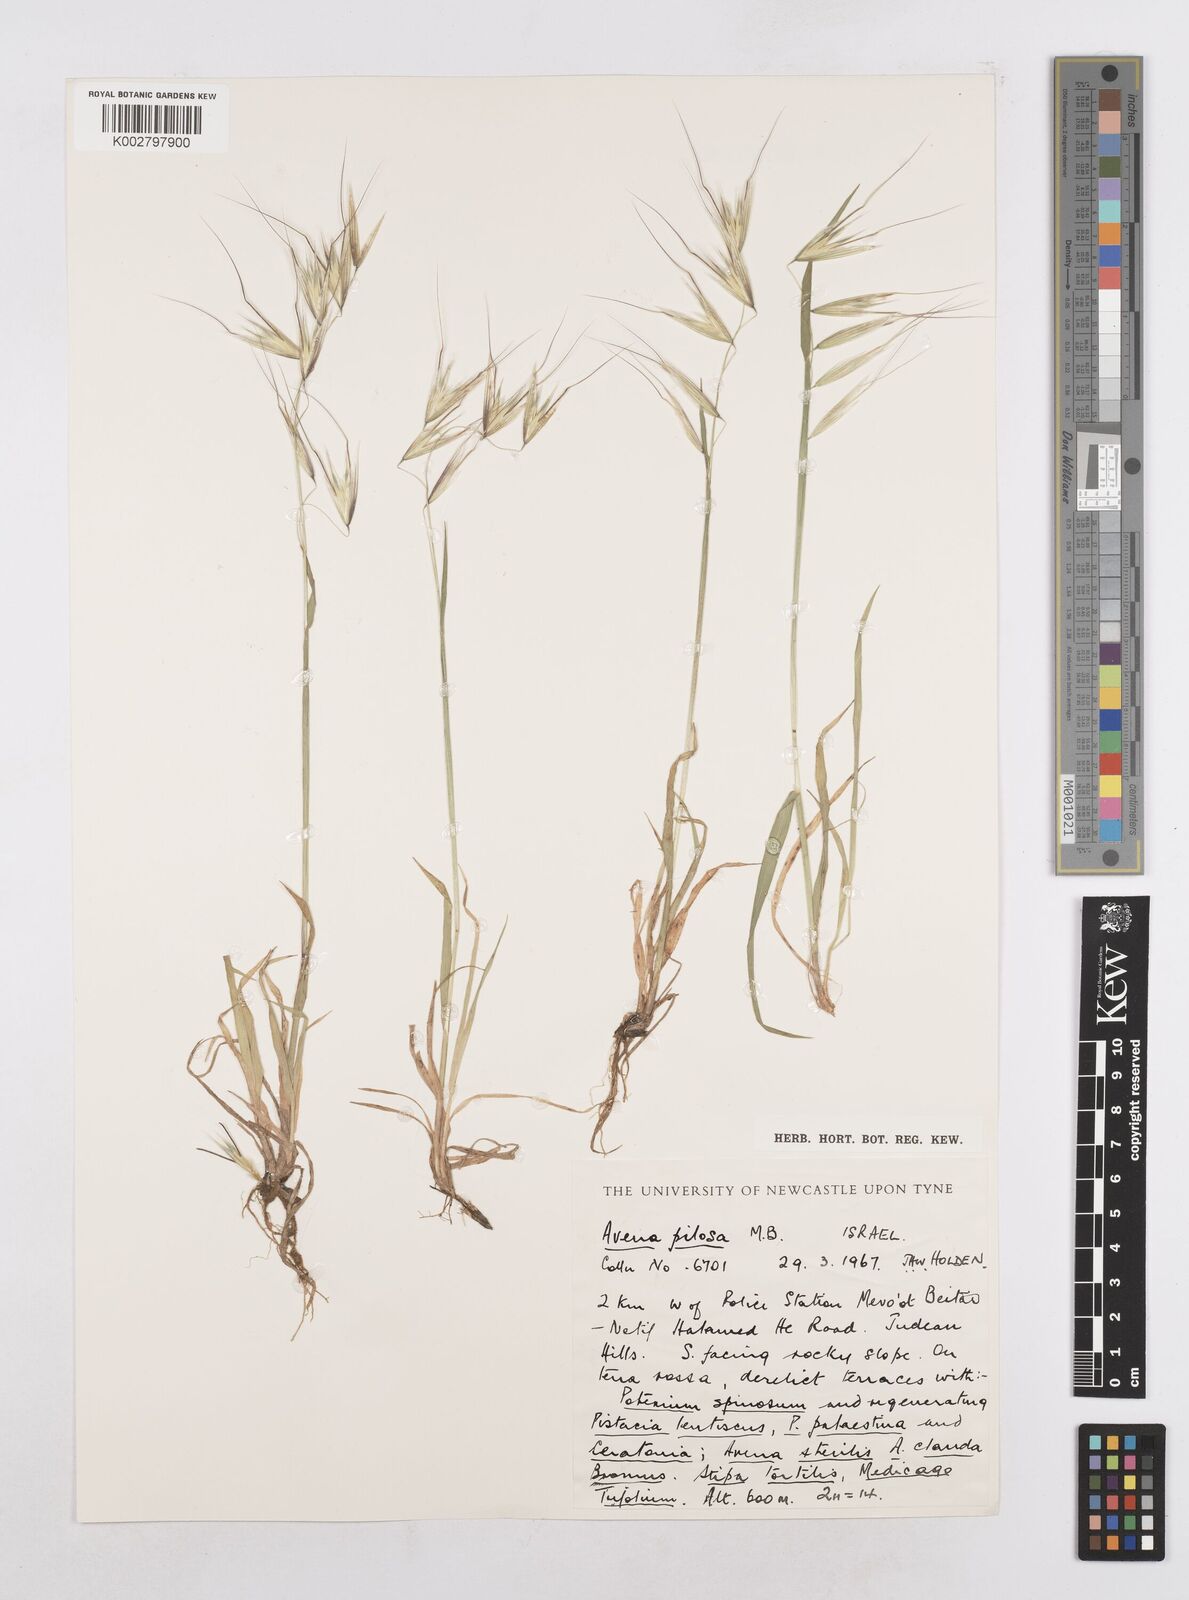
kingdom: Plantae
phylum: Tracheophyta
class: Liliopsida
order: Poales
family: Poaceae
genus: Avena
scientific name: Avena
